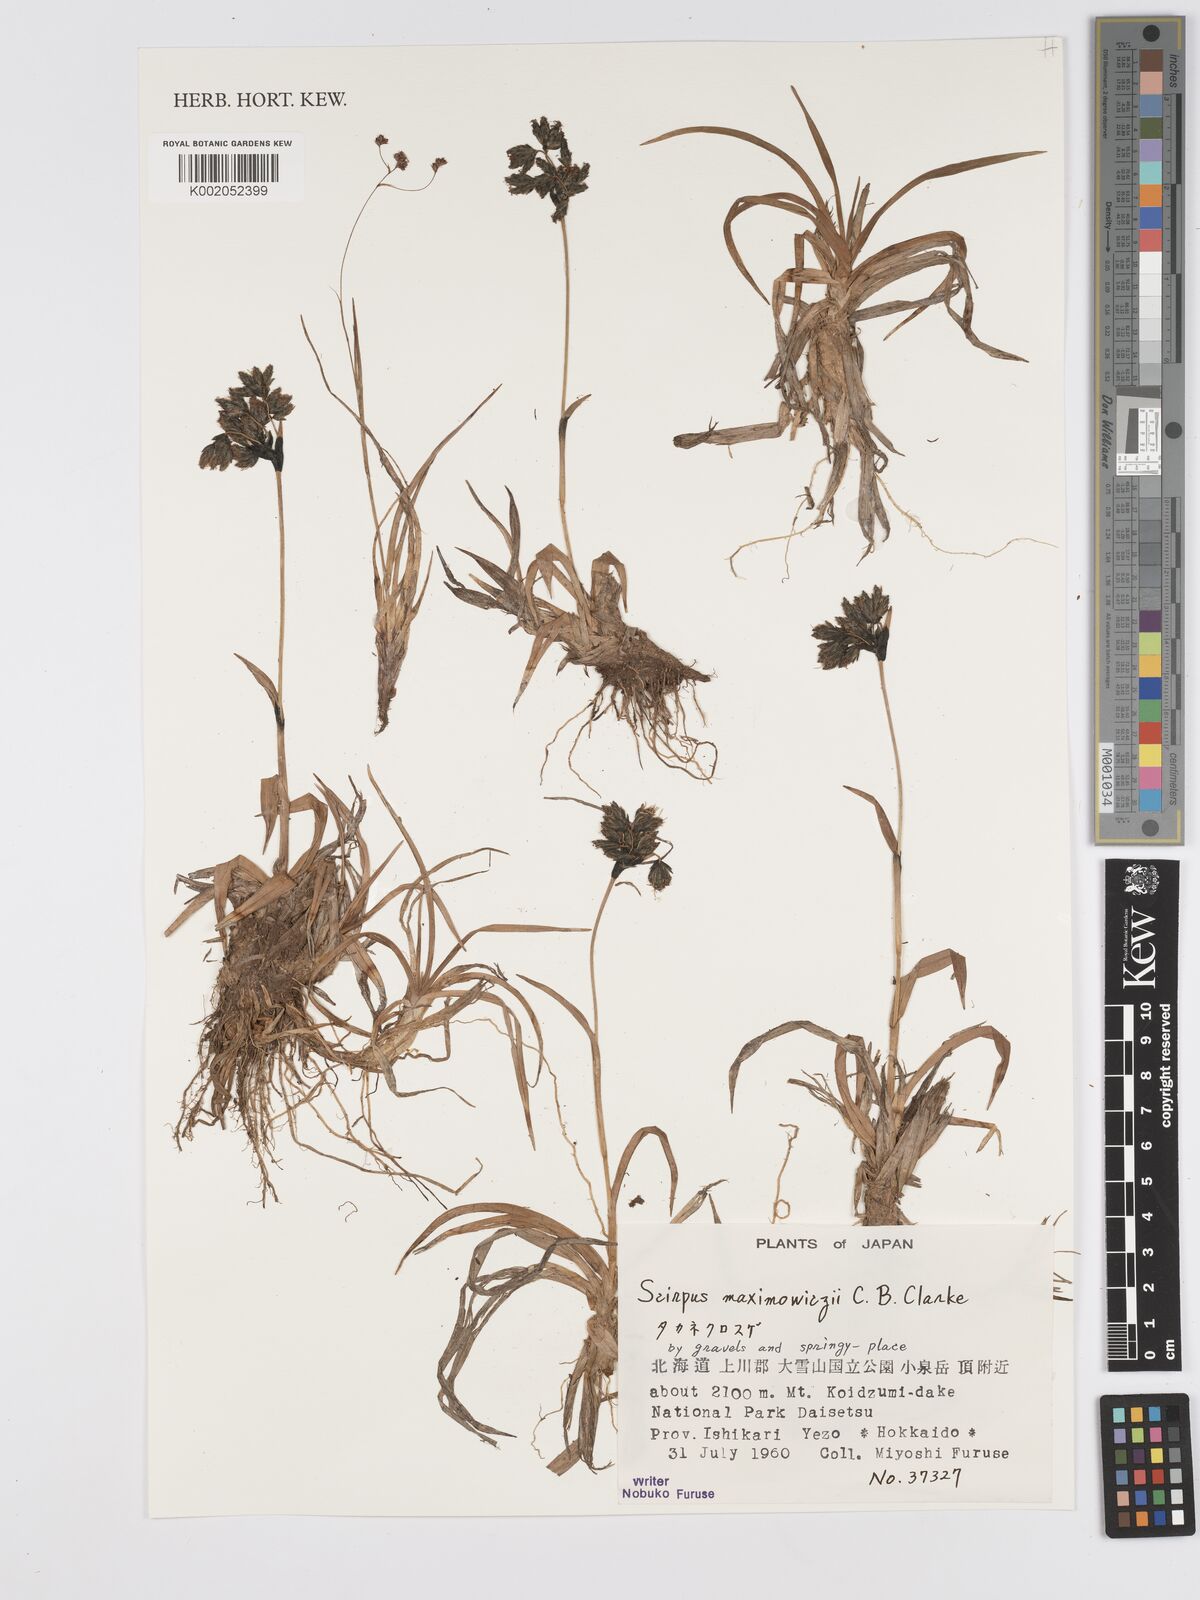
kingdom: Plantae
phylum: Tracheophyta
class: Liliopsida
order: Poales
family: Cyperaceae
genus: Scirpus
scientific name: Scirpus maximowiczii
